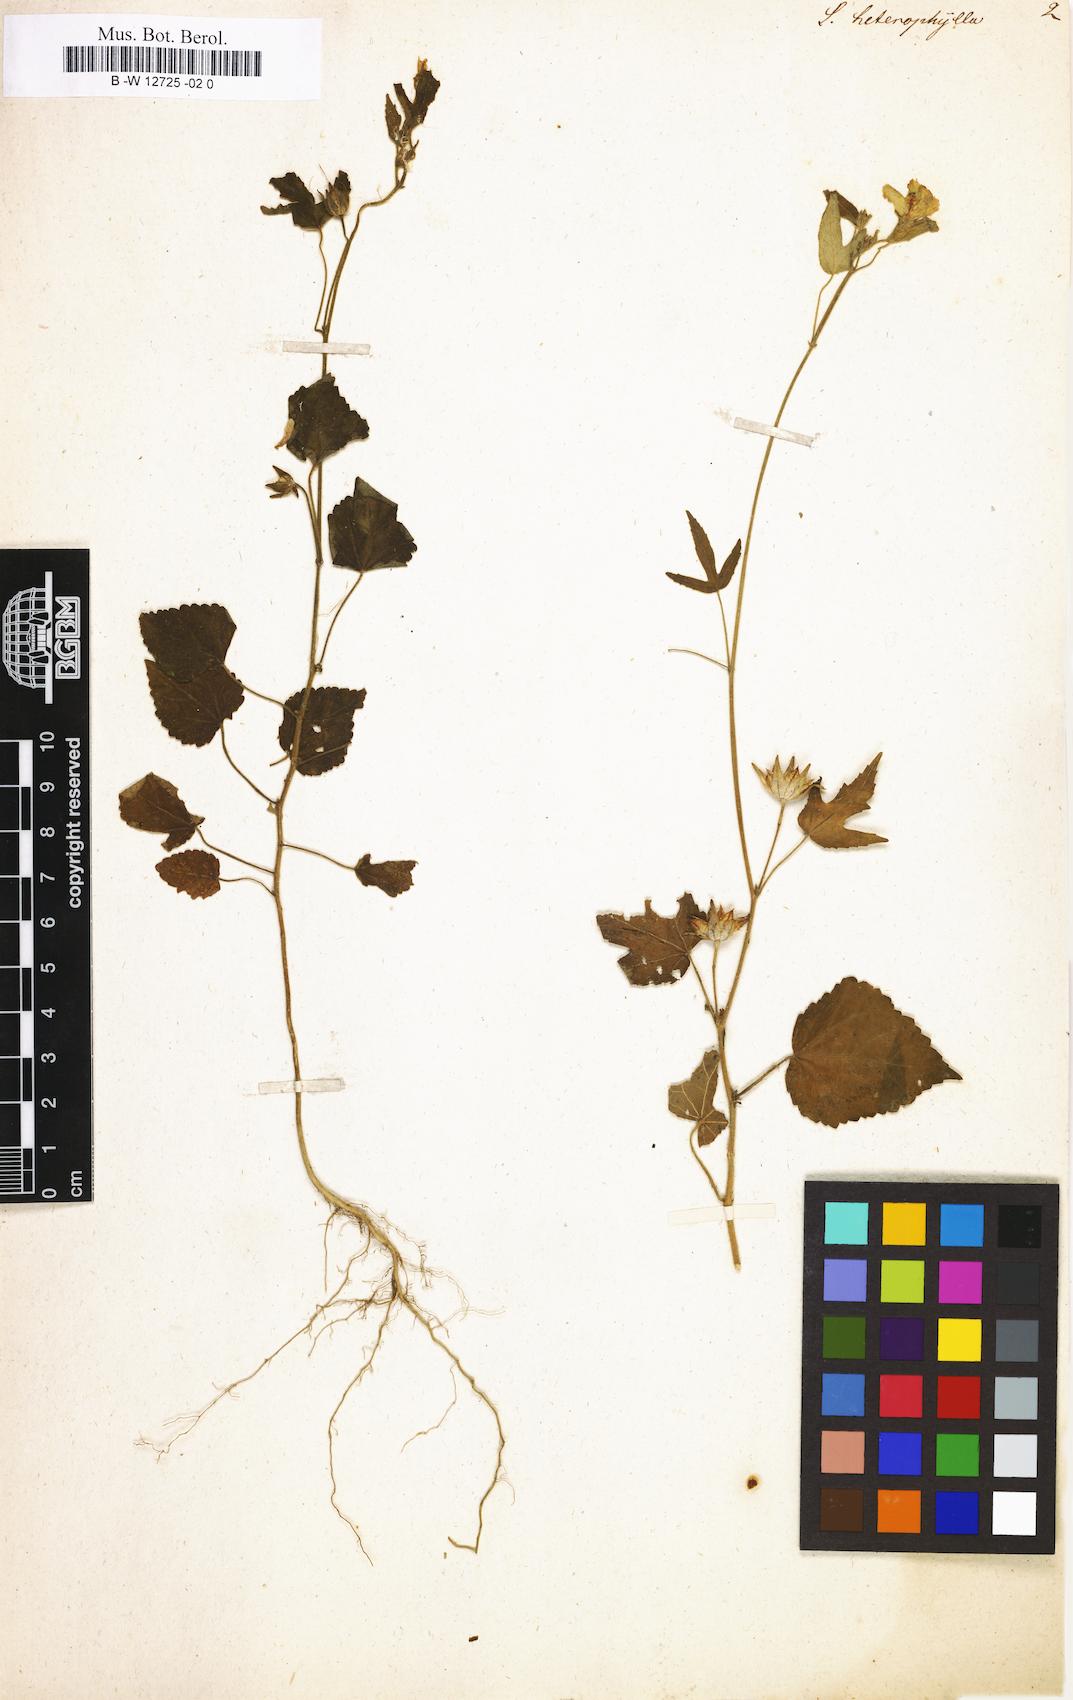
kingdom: Plantae
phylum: Tracheophyta
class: Magnoliopsida
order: Malvales
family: Malvaceae
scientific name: Malvaceae
